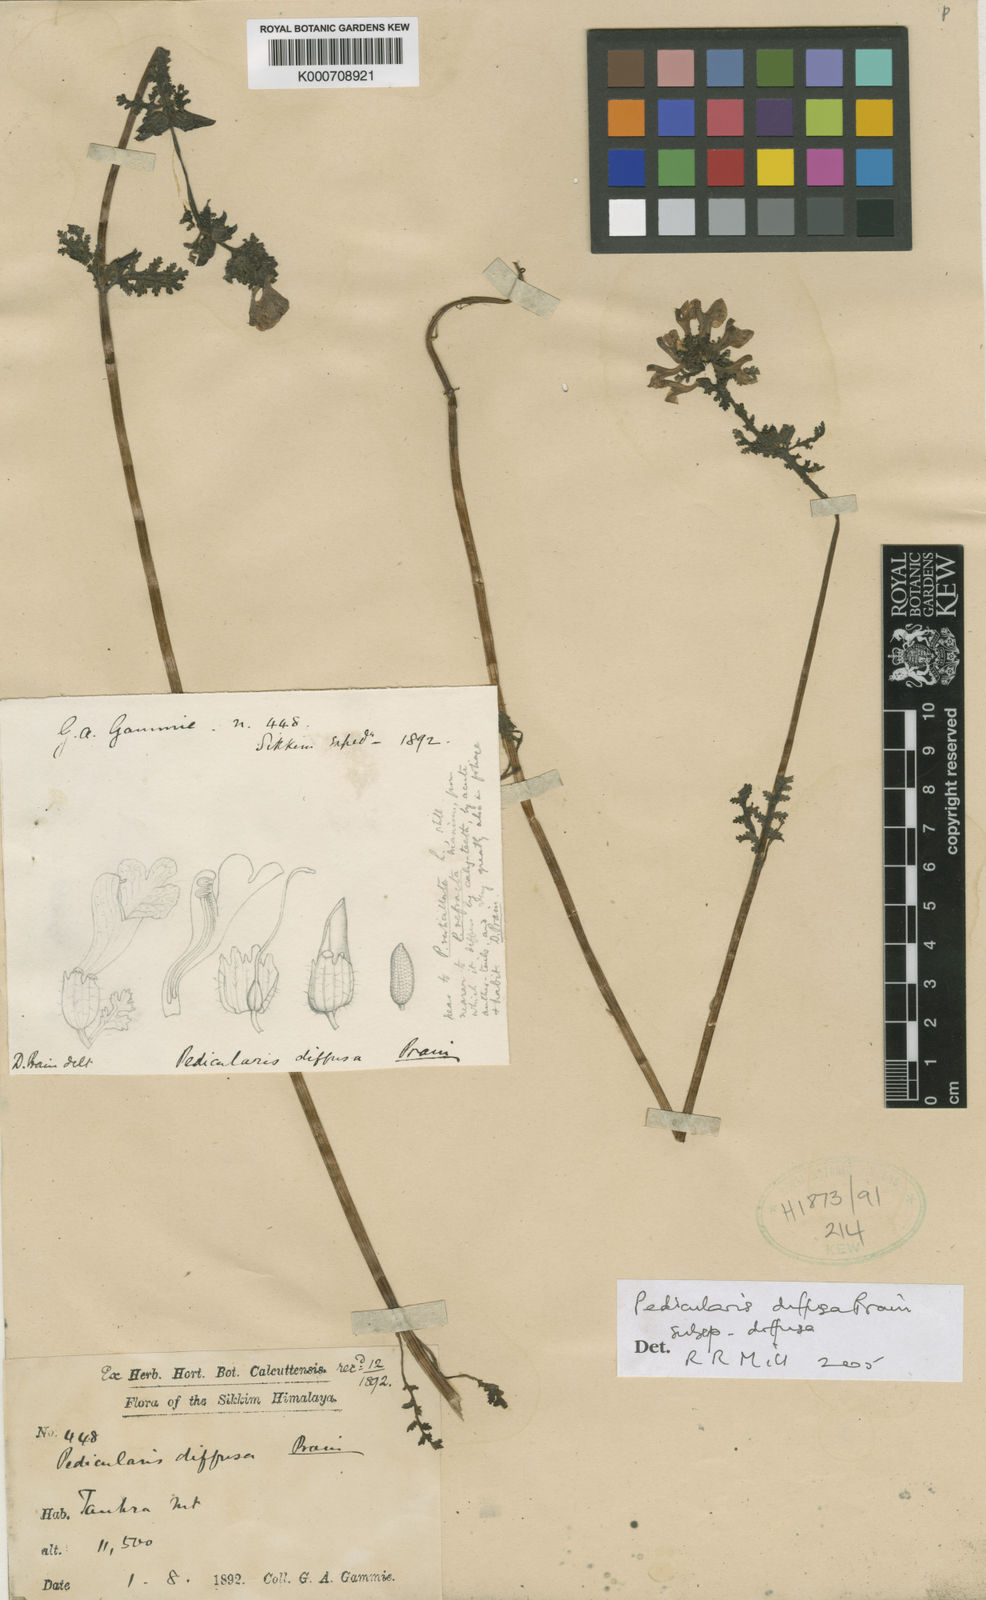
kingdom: Plantae
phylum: Tracheophyta
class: Magnoliopsida
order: Lamiales
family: Orobanchaceae
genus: Pedicularis
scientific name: Pedicularis diffusa
